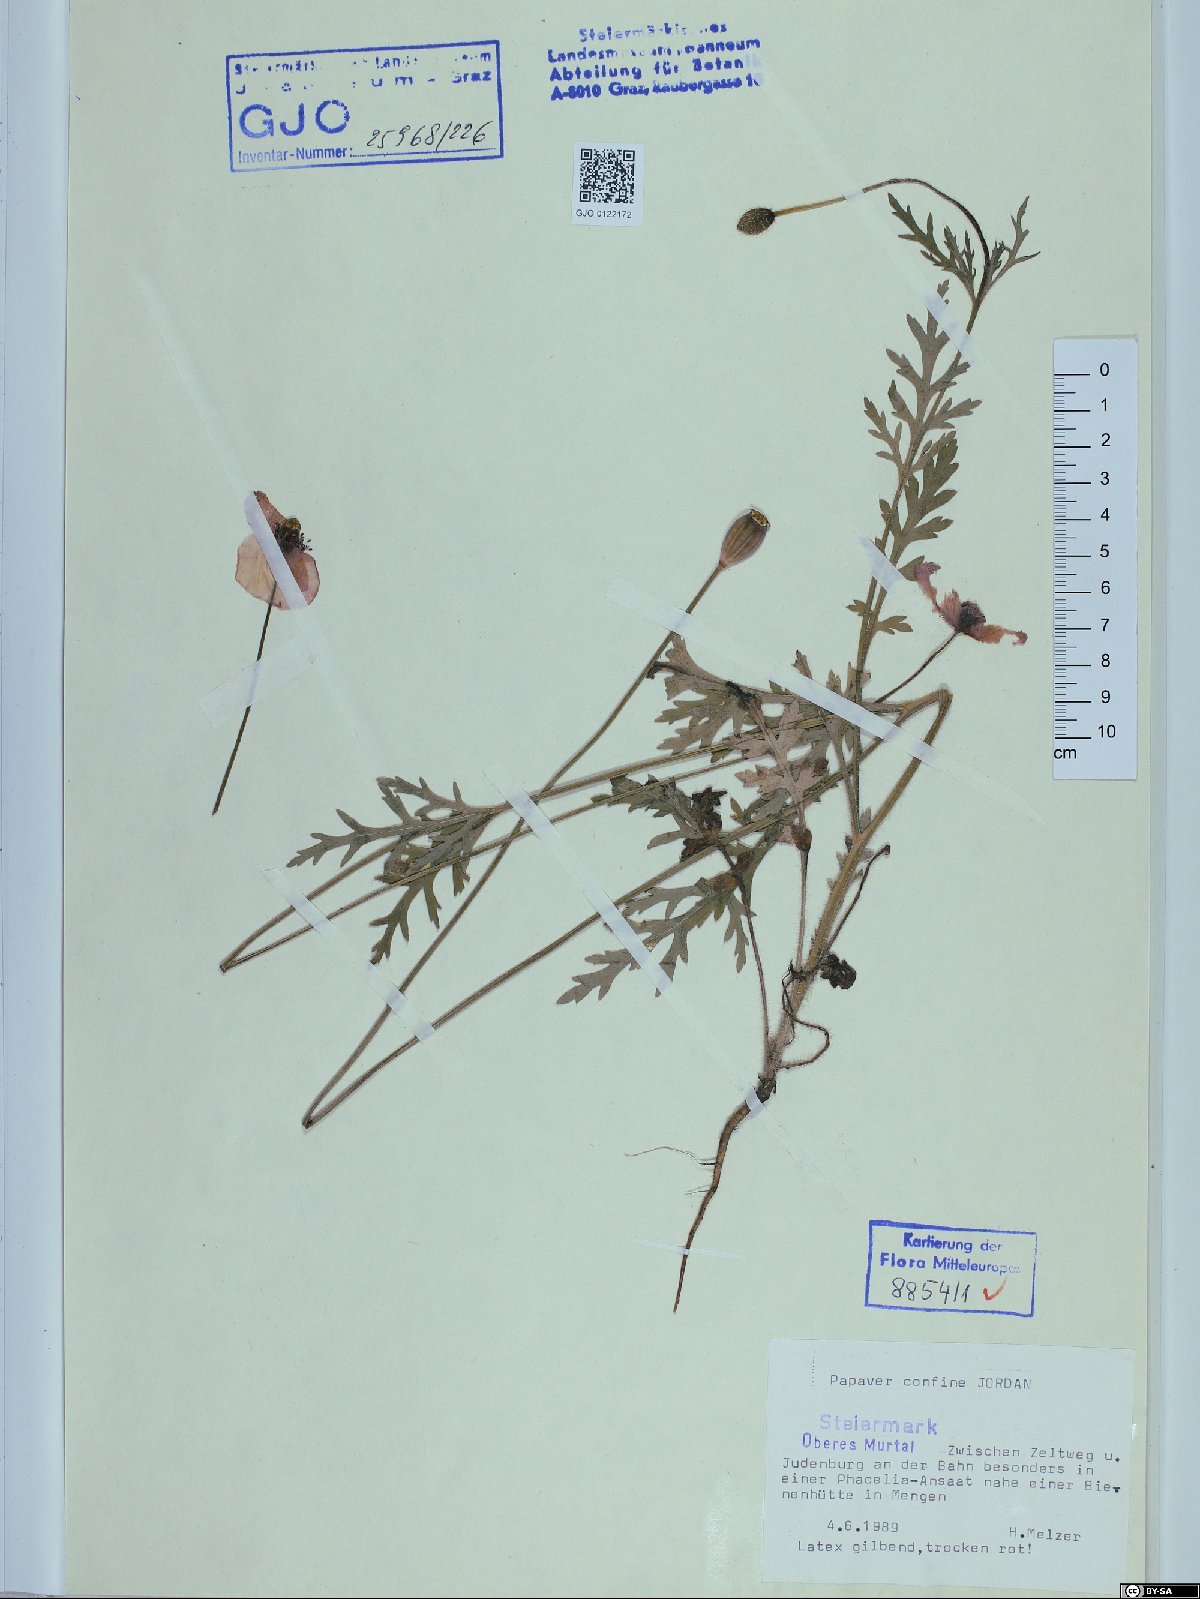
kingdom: Plantae
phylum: Tracheophyta
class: Magnoliopsida
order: Ranunculales
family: Papaveraceae
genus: Papaver
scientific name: Papaver confine
